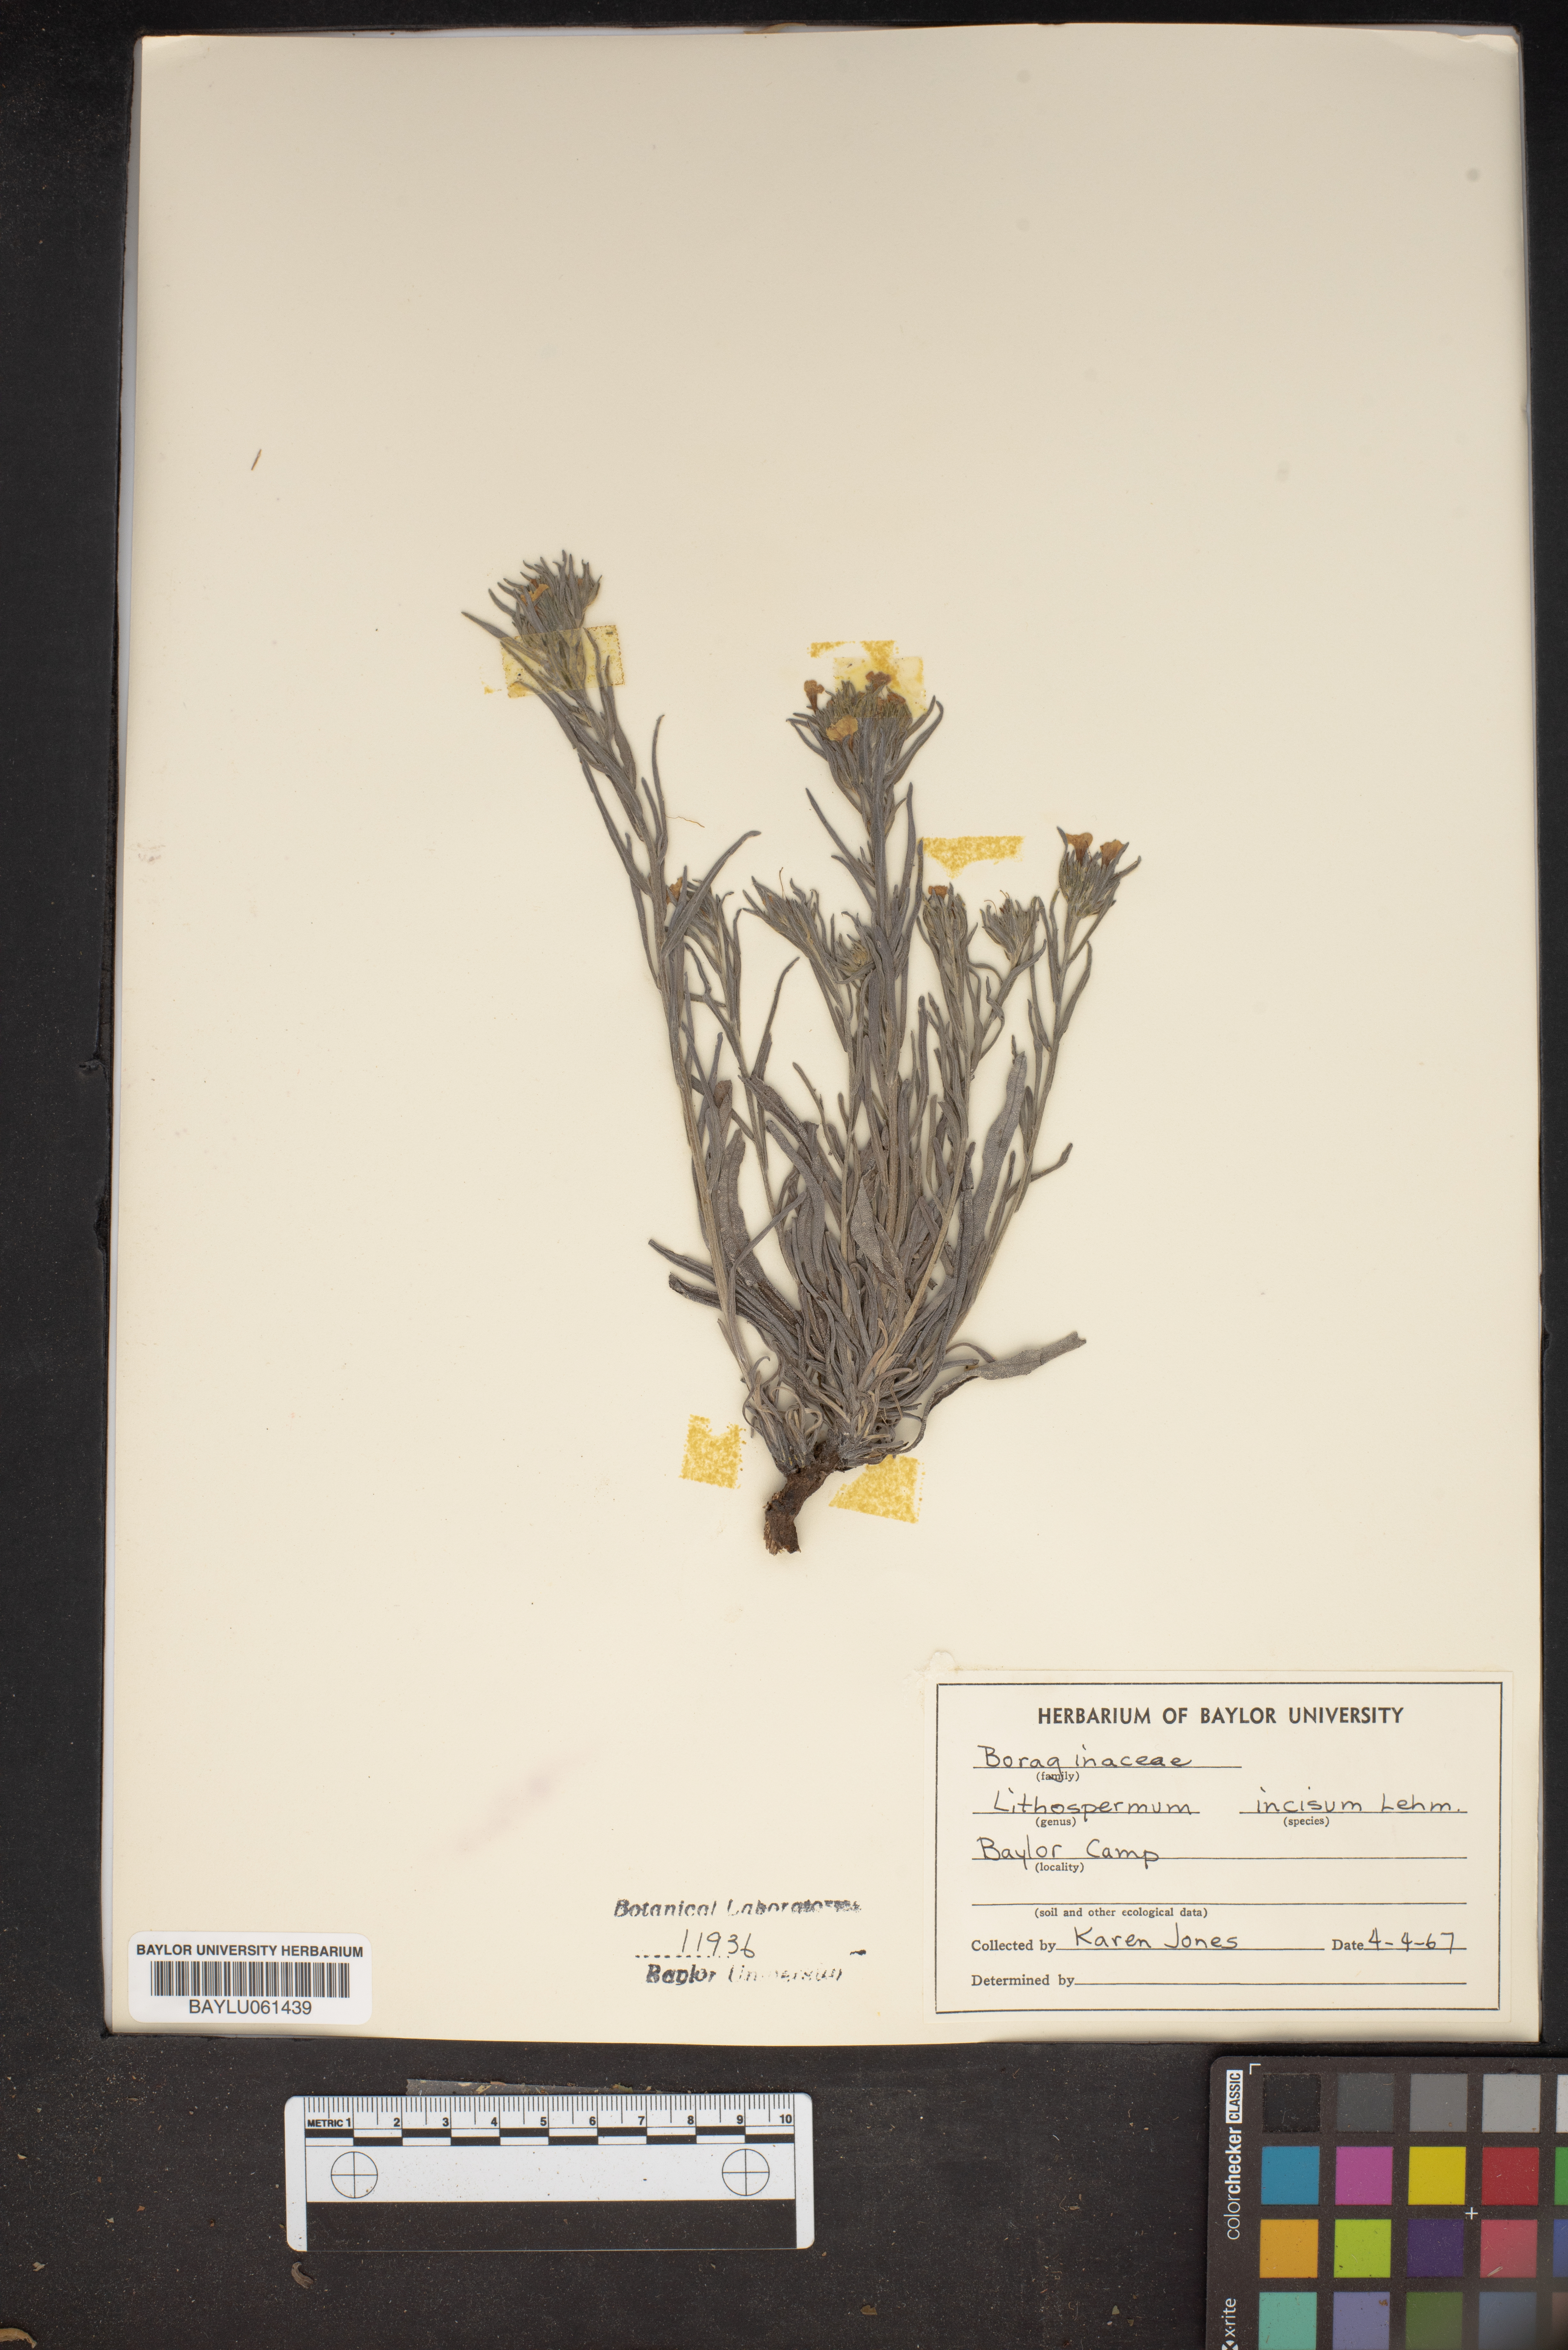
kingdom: Plantae
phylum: Tracheophyta
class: Magnoliopsida
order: Boraginales
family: Boraginaceae
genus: Lithospermum
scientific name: Lithospermum incisum
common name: Fringed gromwell
